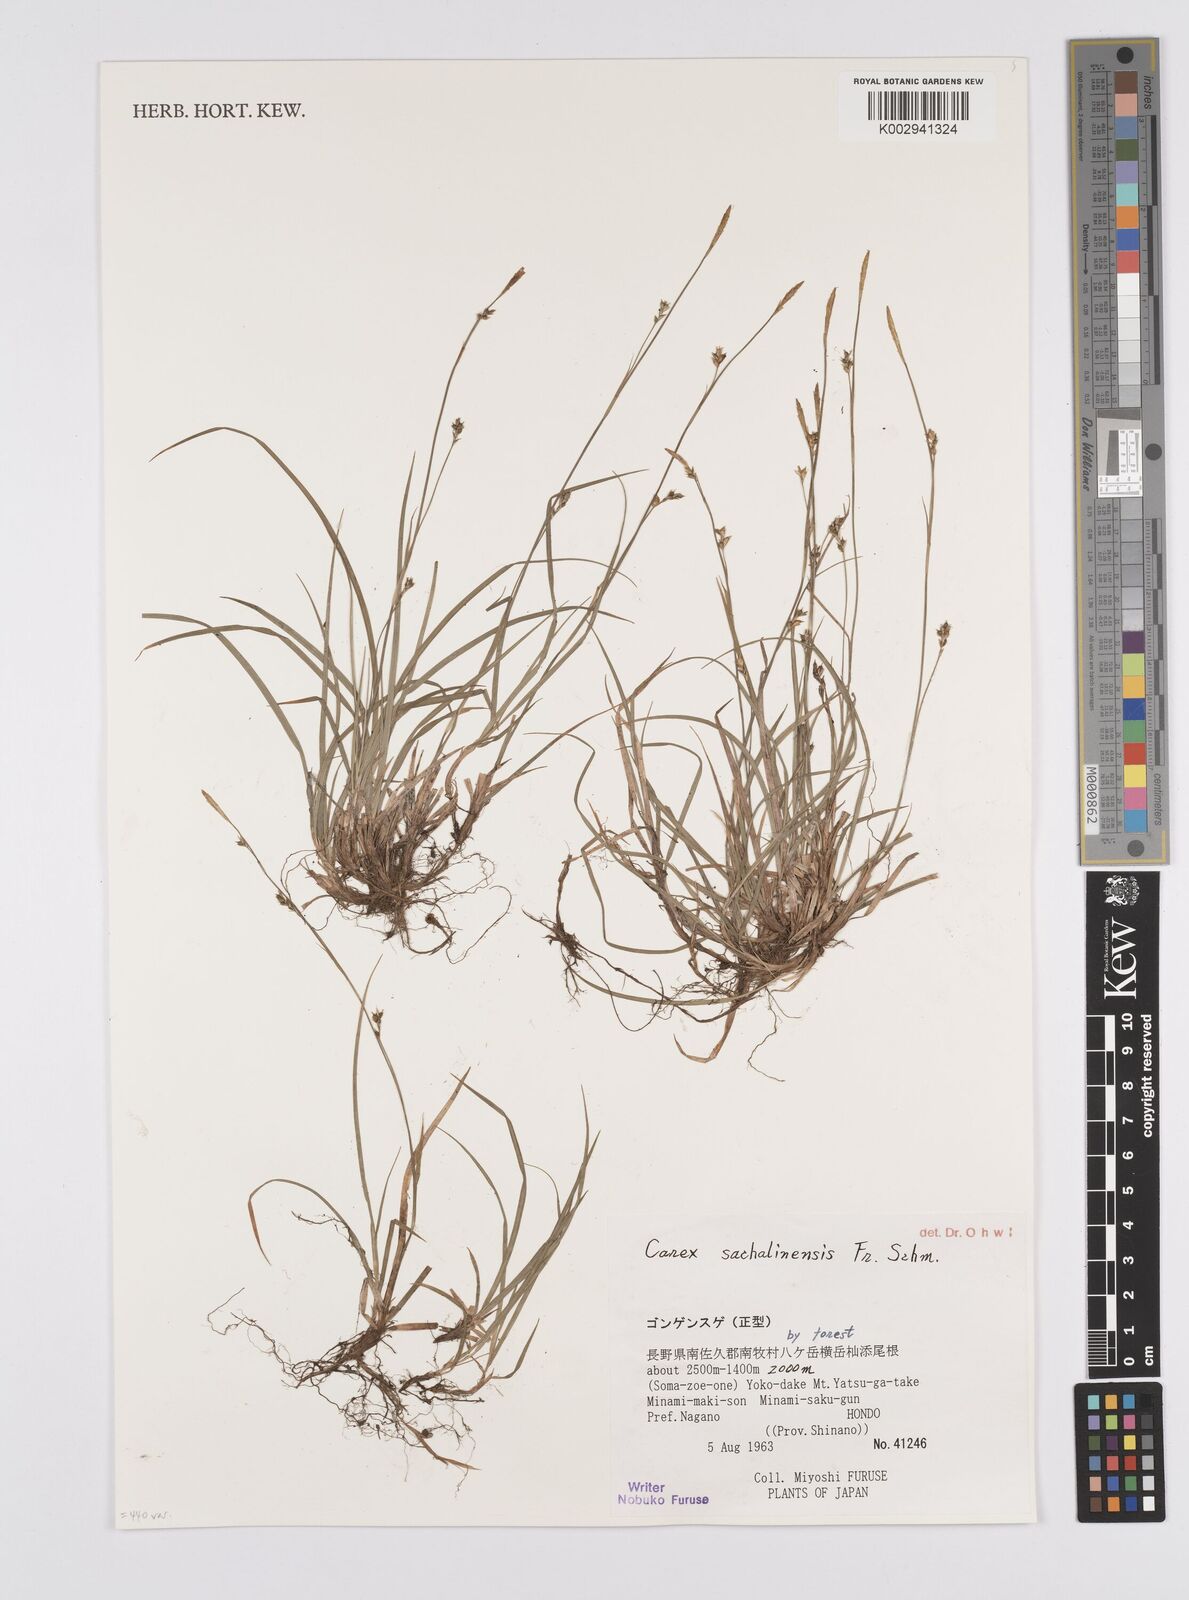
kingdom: Plantae
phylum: Tracheophyta
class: Liliopsida
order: Poales
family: Cyperaceae
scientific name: Cyperaceae
